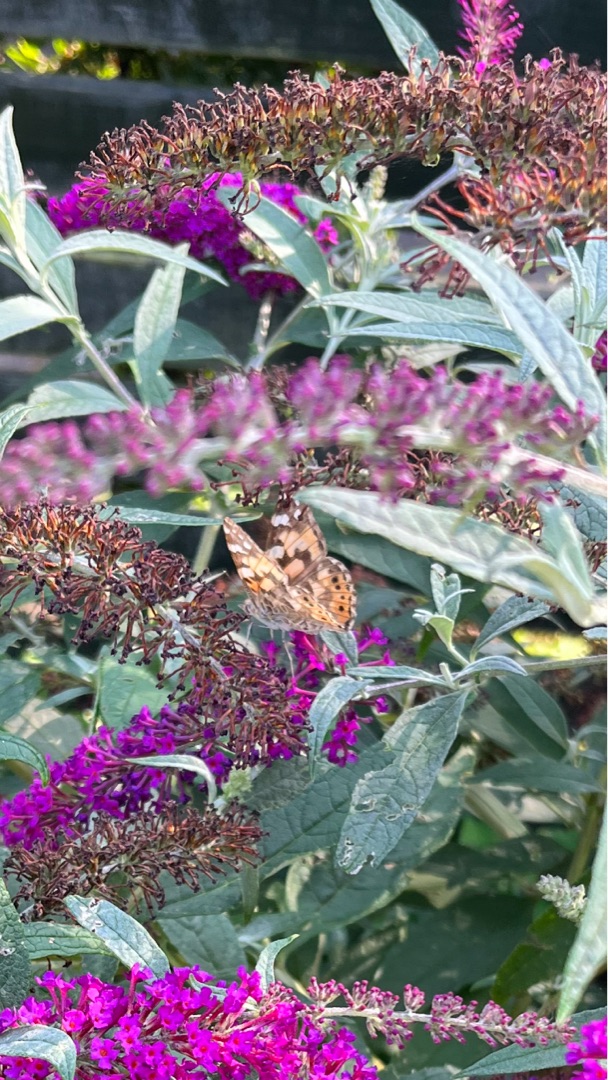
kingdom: Animalia
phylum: Arthropoda
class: Insecta
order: Lepidoptera
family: Nymphalidae
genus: Vanessa
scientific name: Vanessa cardui
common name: Tidselsommerfugl
